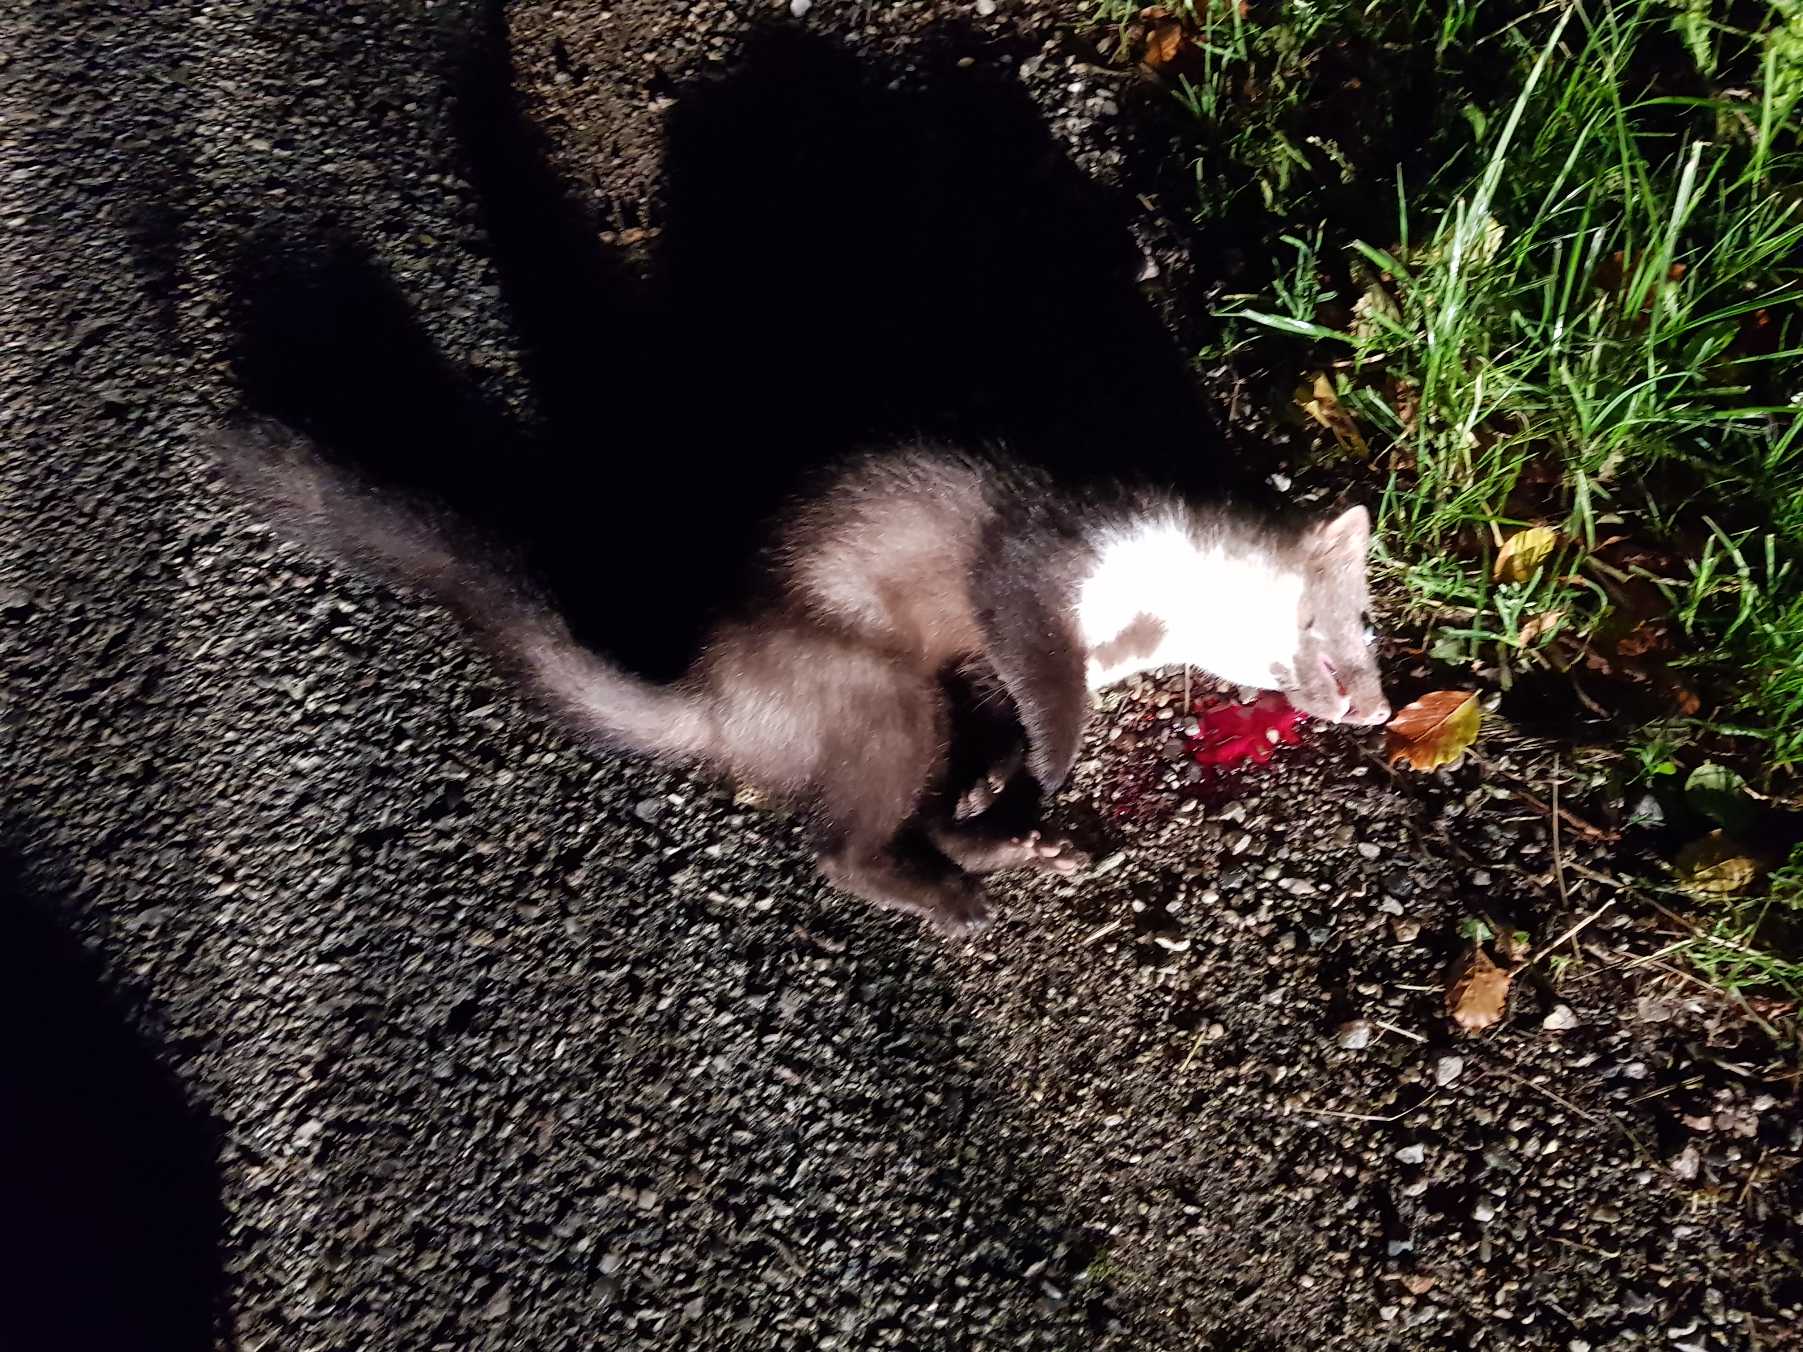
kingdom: Animalia
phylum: Chordata
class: Mammalia
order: Carnivora
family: Mustelidae
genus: Martes
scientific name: Martes foina
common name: Husmår
